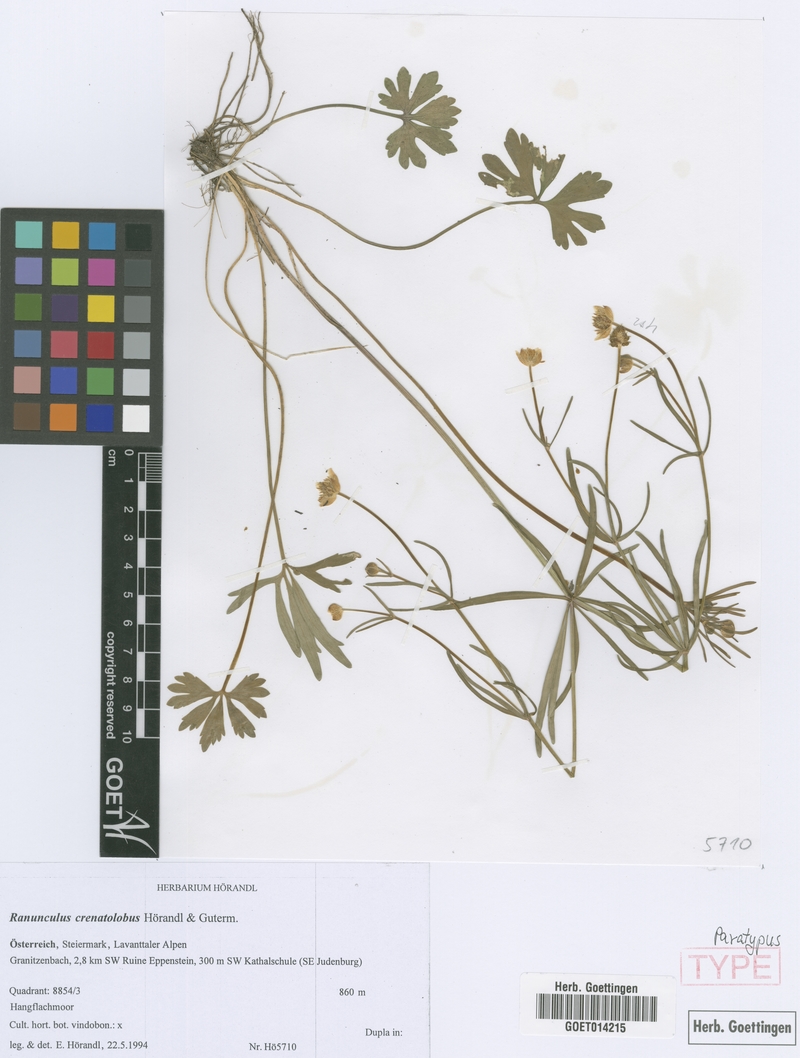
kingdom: Plantae
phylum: Tracheophyta
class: Magnoliopsida
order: Ranunculales
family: Ranunculaceae
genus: Ranunculus
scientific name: Ranunculus crenatolobus
